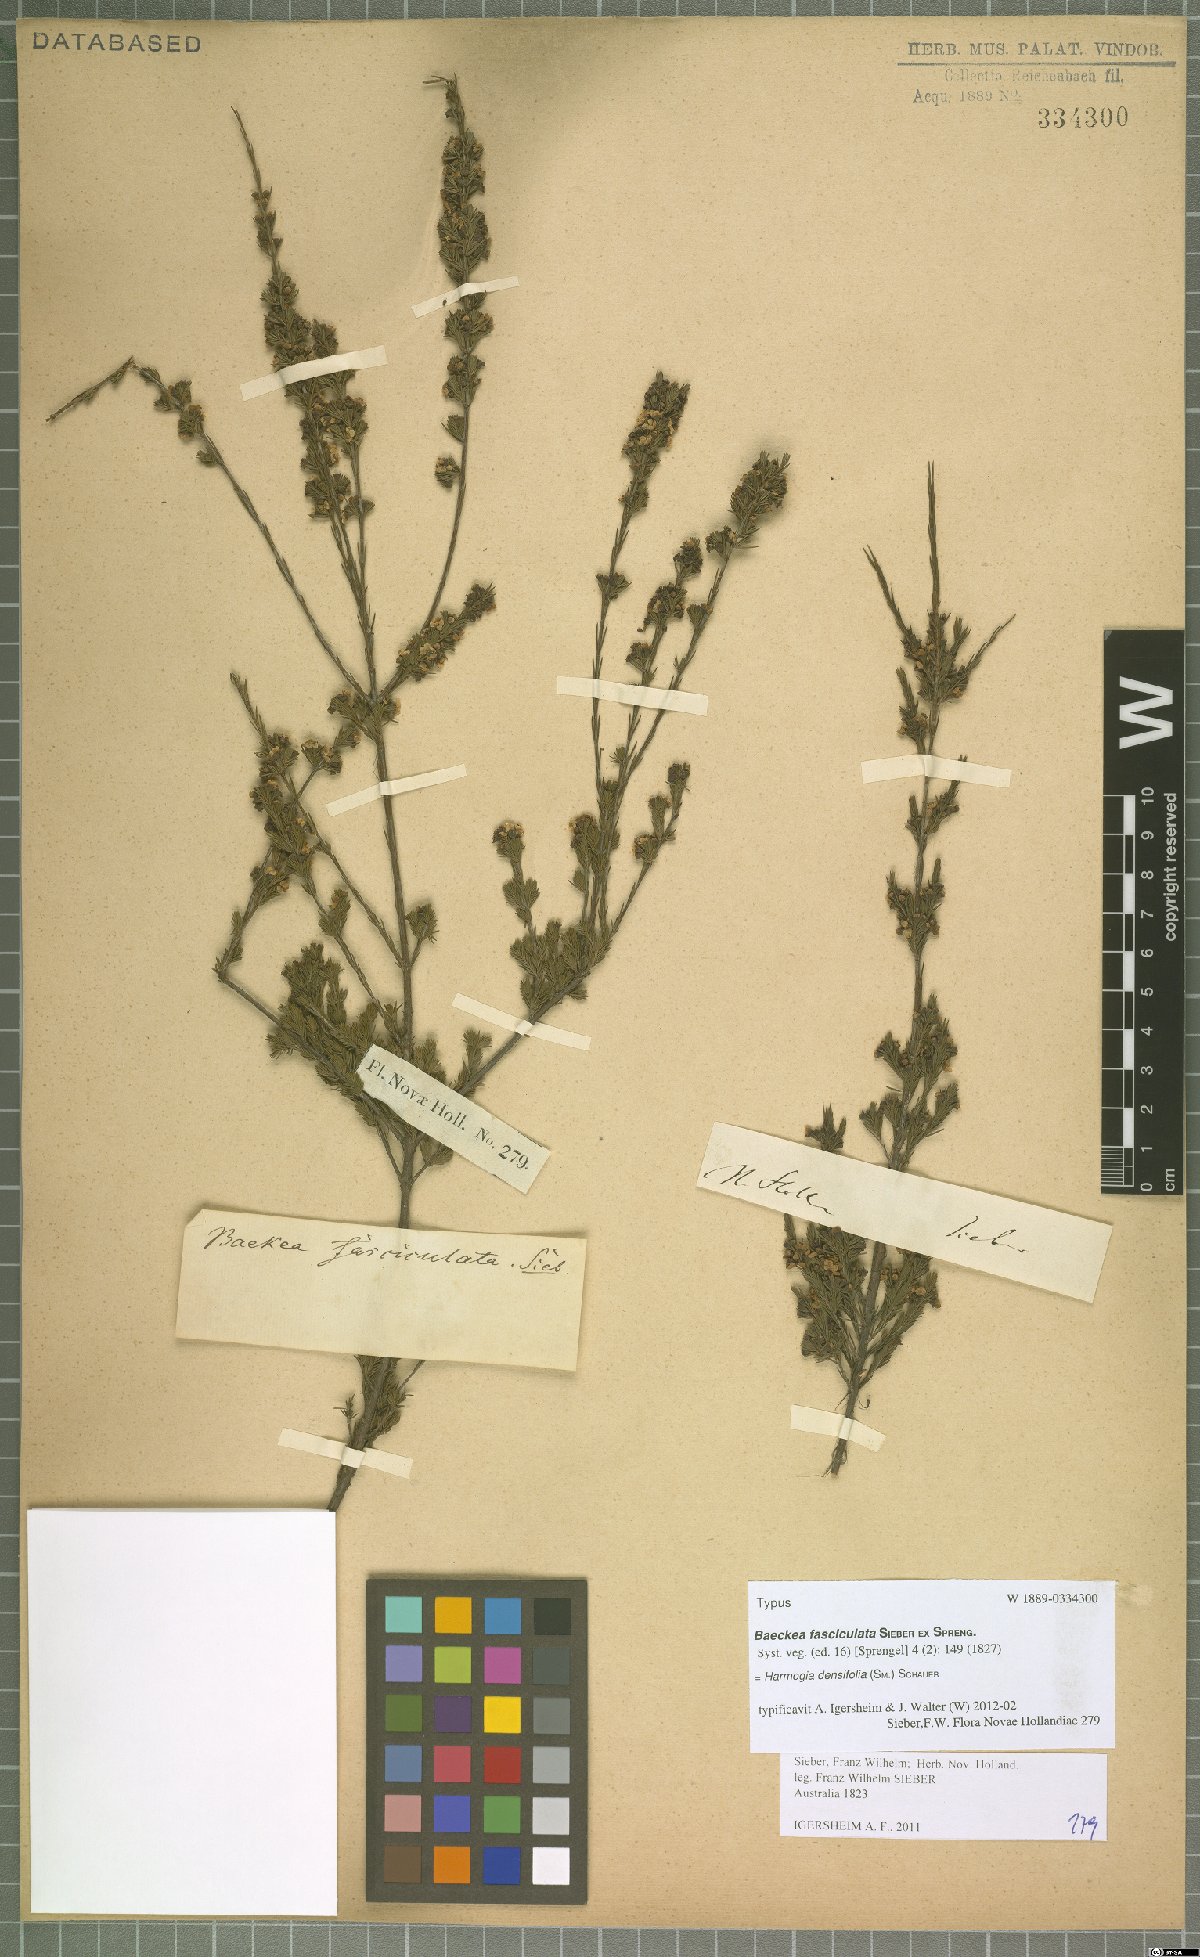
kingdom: Plantae
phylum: Tracheophyta
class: Magnoliopsida
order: Myrtales
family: Myrtaceae
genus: Harmogia
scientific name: Harmogia densifolia
